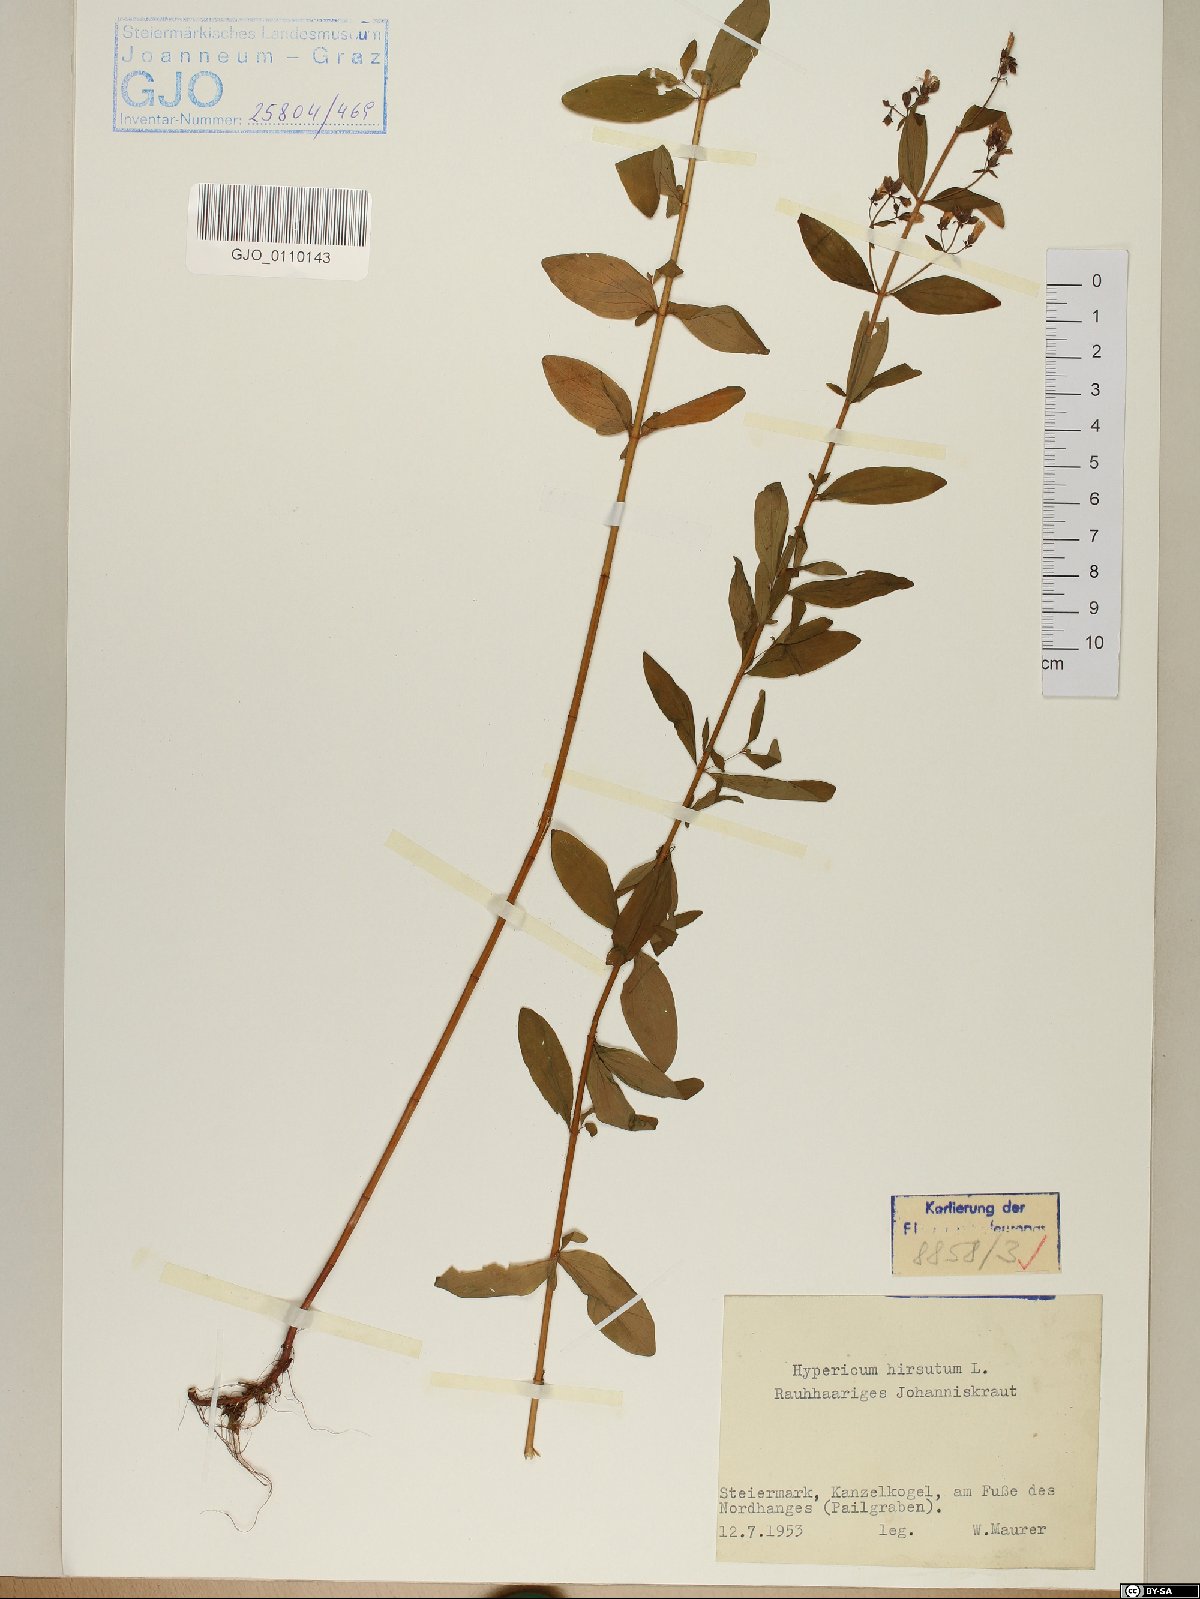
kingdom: Plantae
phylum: Tracheophyta
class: Magnoliopsida
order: Malpighiales
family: Hypericaceae
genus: Hypericum
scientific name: Hypericum hirsutum
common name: Hairy st. john's-wort
